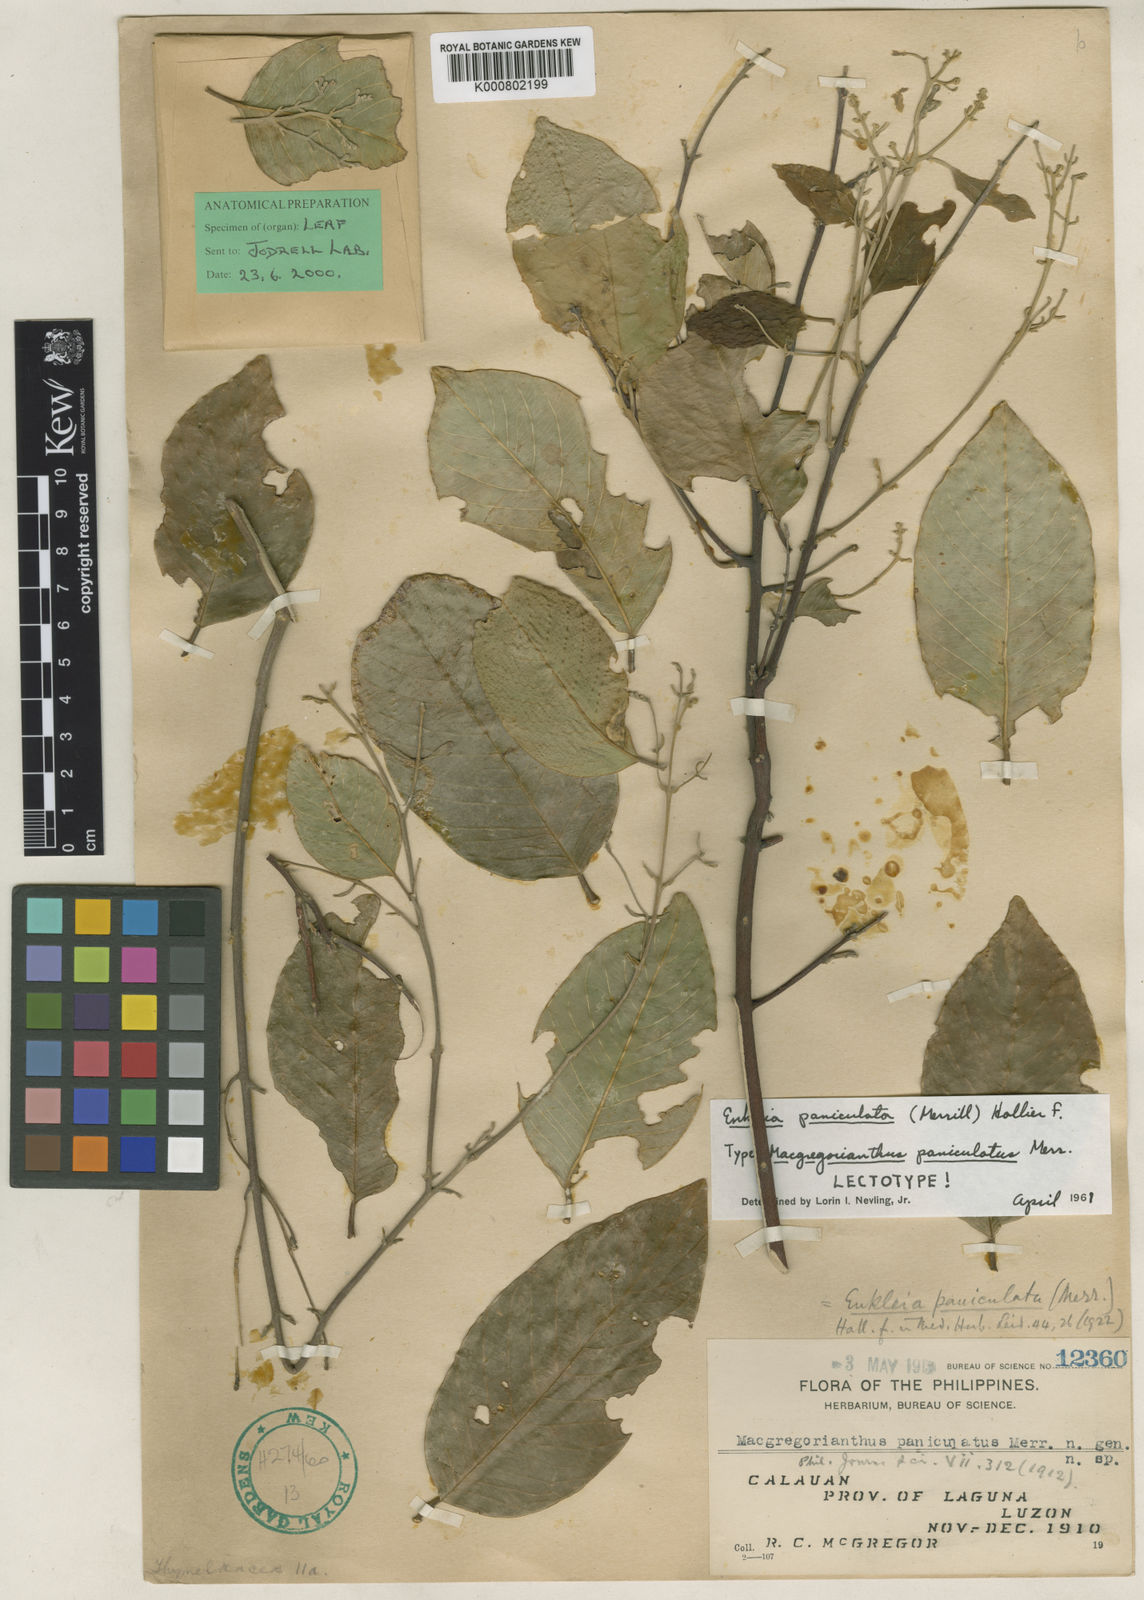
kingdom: Plantae
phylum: Tracheophyta
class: Magnoliopsida
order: Malvales
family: Thymelaeaceae
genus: Enkleia
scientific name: Enkleia paniculata
